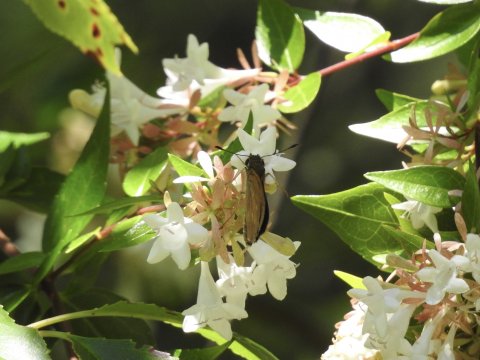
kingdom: Animalia
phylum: Arthropoda
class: Insecta
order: Lepidoptera
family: Hesperiidae
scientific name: Hesperiidae
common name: Skippers
